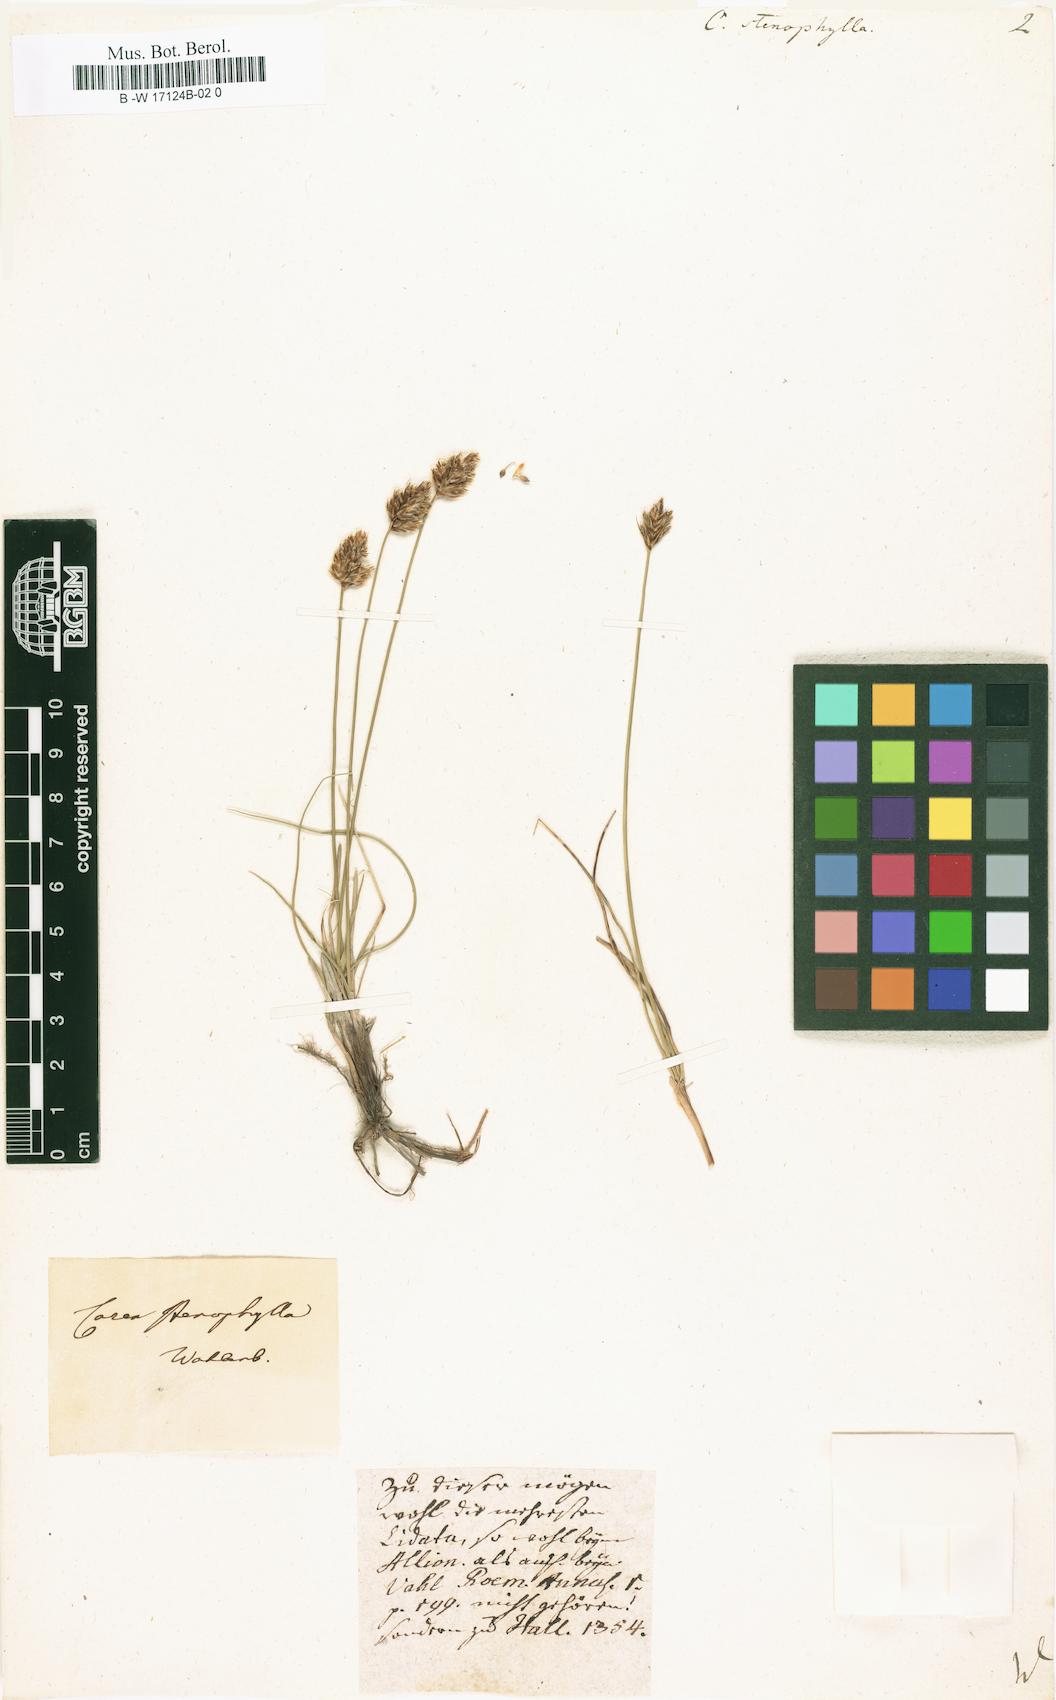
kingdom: Plantae
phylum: Tracheophyta
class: Liliopsida
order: Poales
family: Cyperaceae
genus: Carex
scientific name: Carex stenophylla
